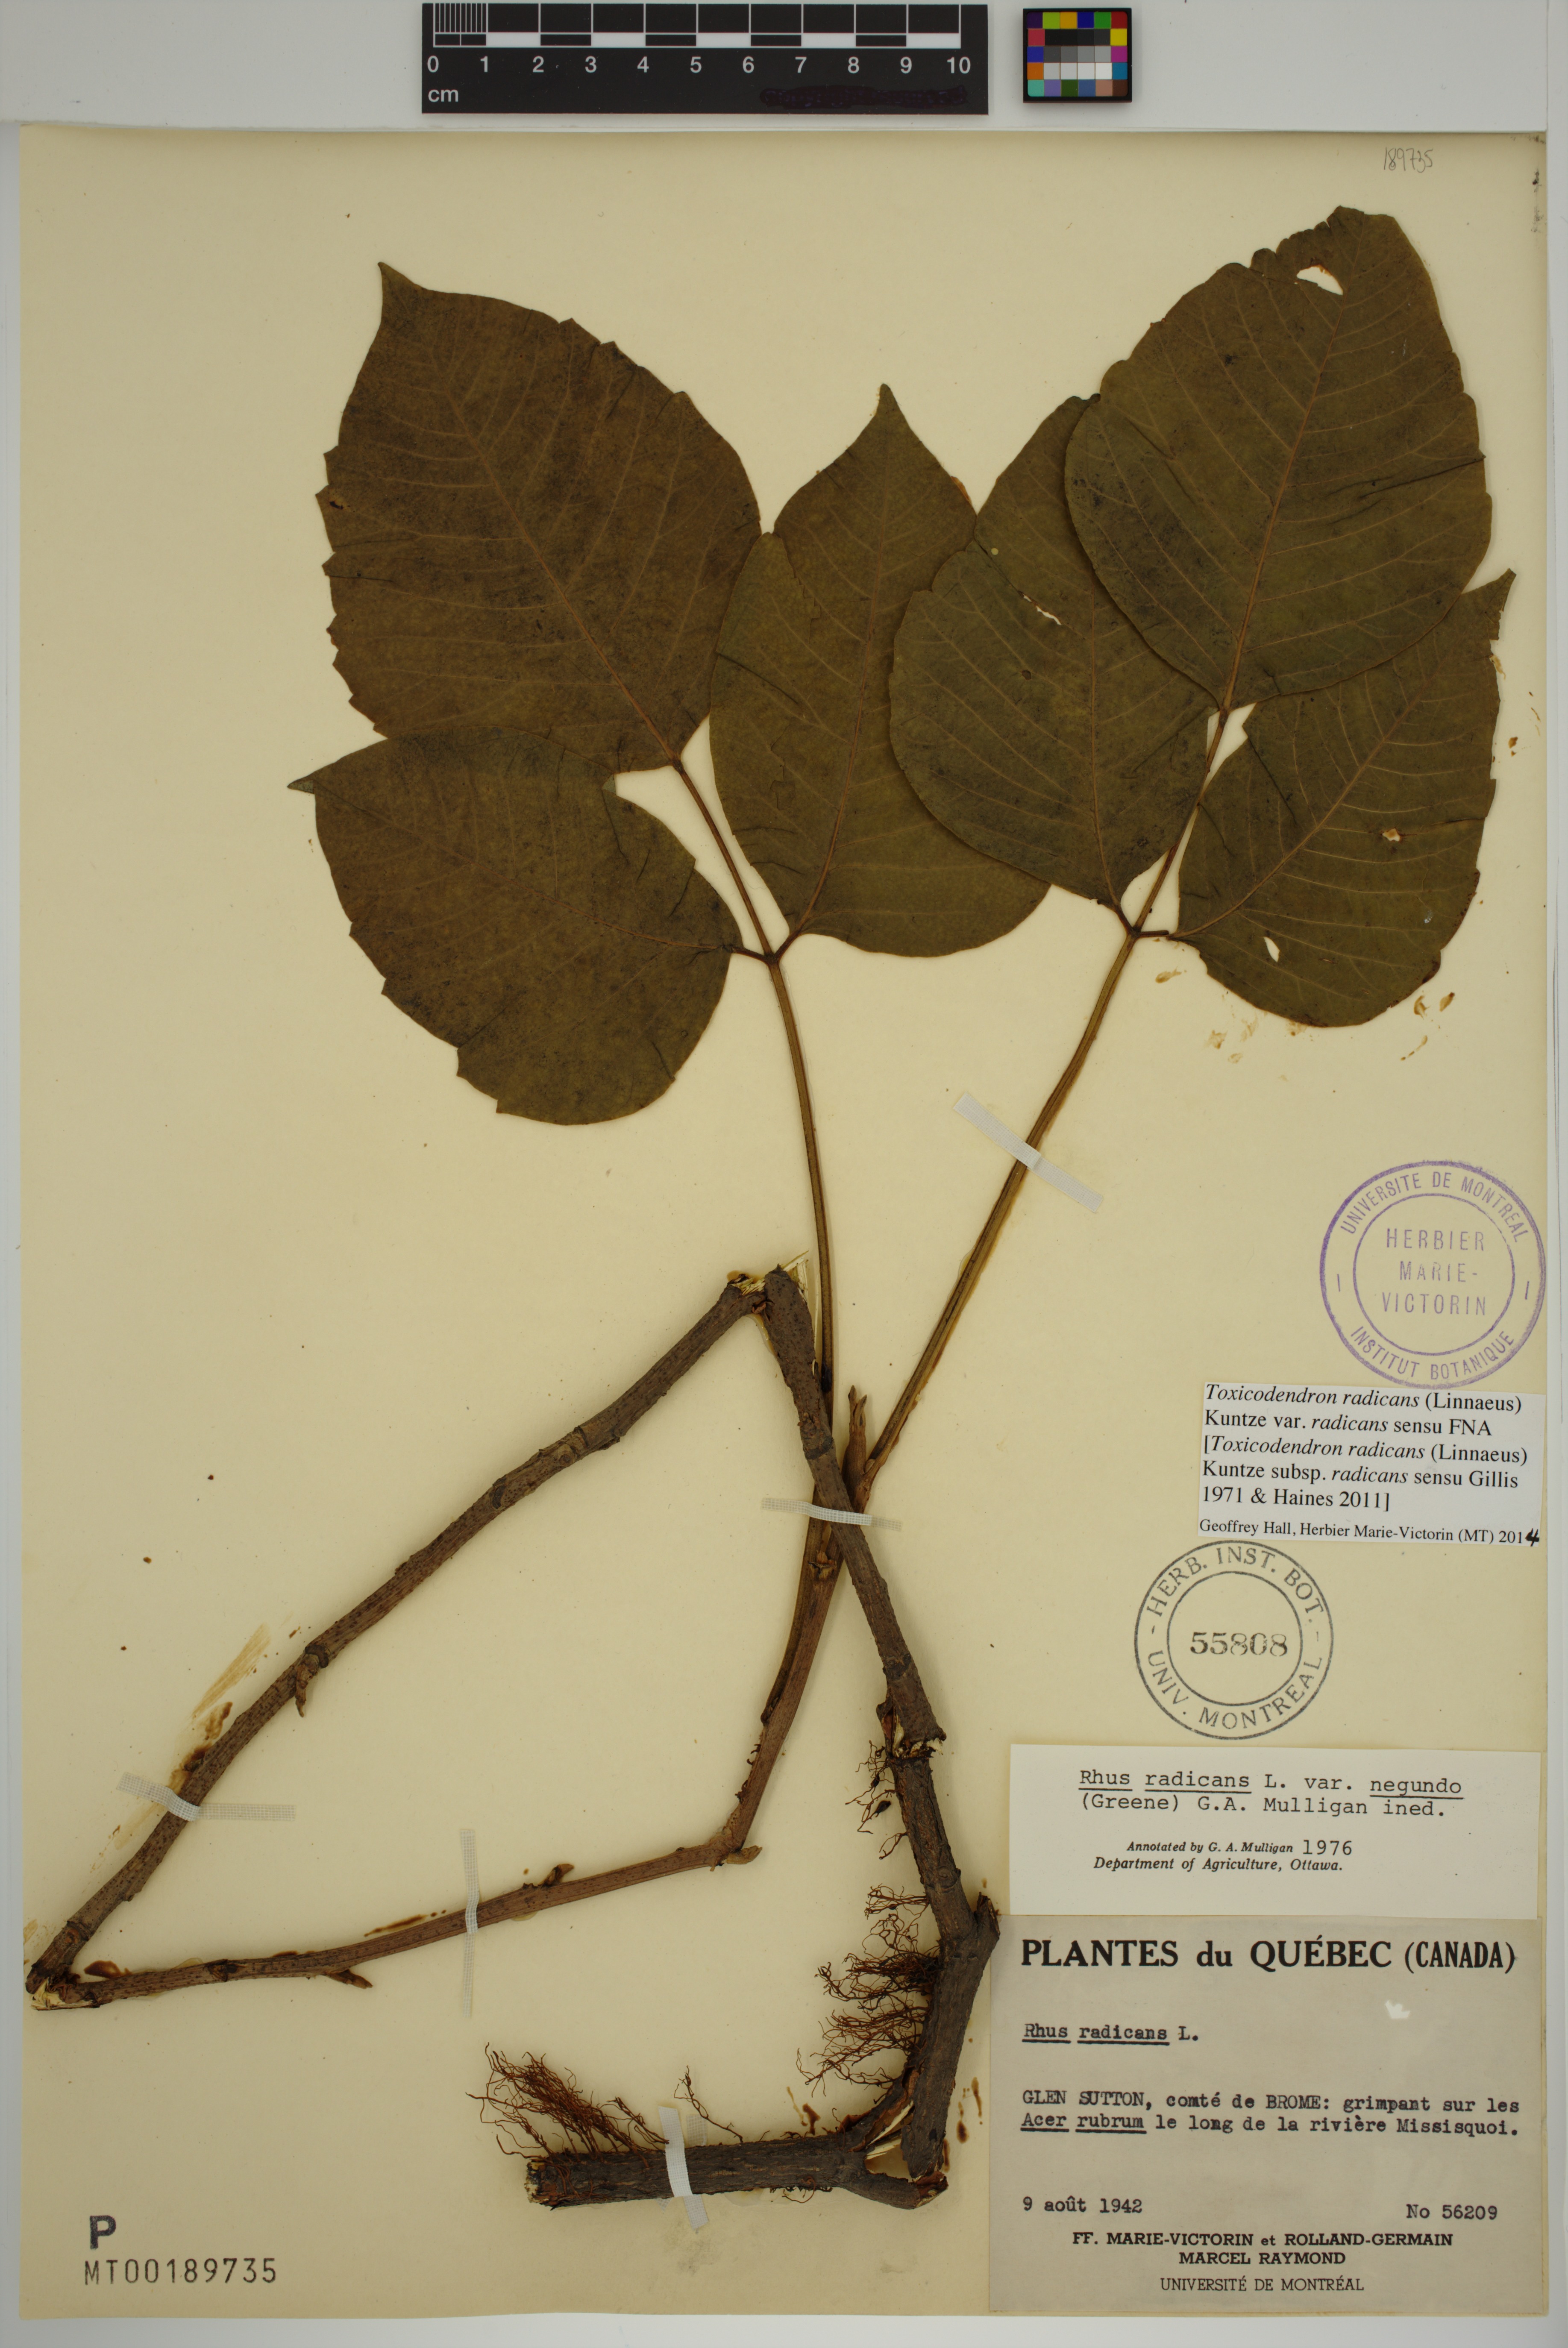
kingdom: Plantae
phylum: Tracheophyta
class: Magnoliopsida
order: Sapindales
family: Anacardiaceae
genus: Toxicodendron
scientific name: Toxicodendron radicans
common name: Poison ivy
